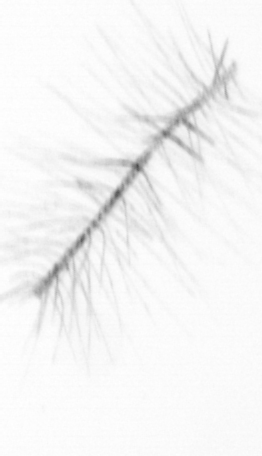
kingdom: Chromista
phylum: Ochrophyta
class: Bacillariophyceae
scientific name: Bacillariophyceae
